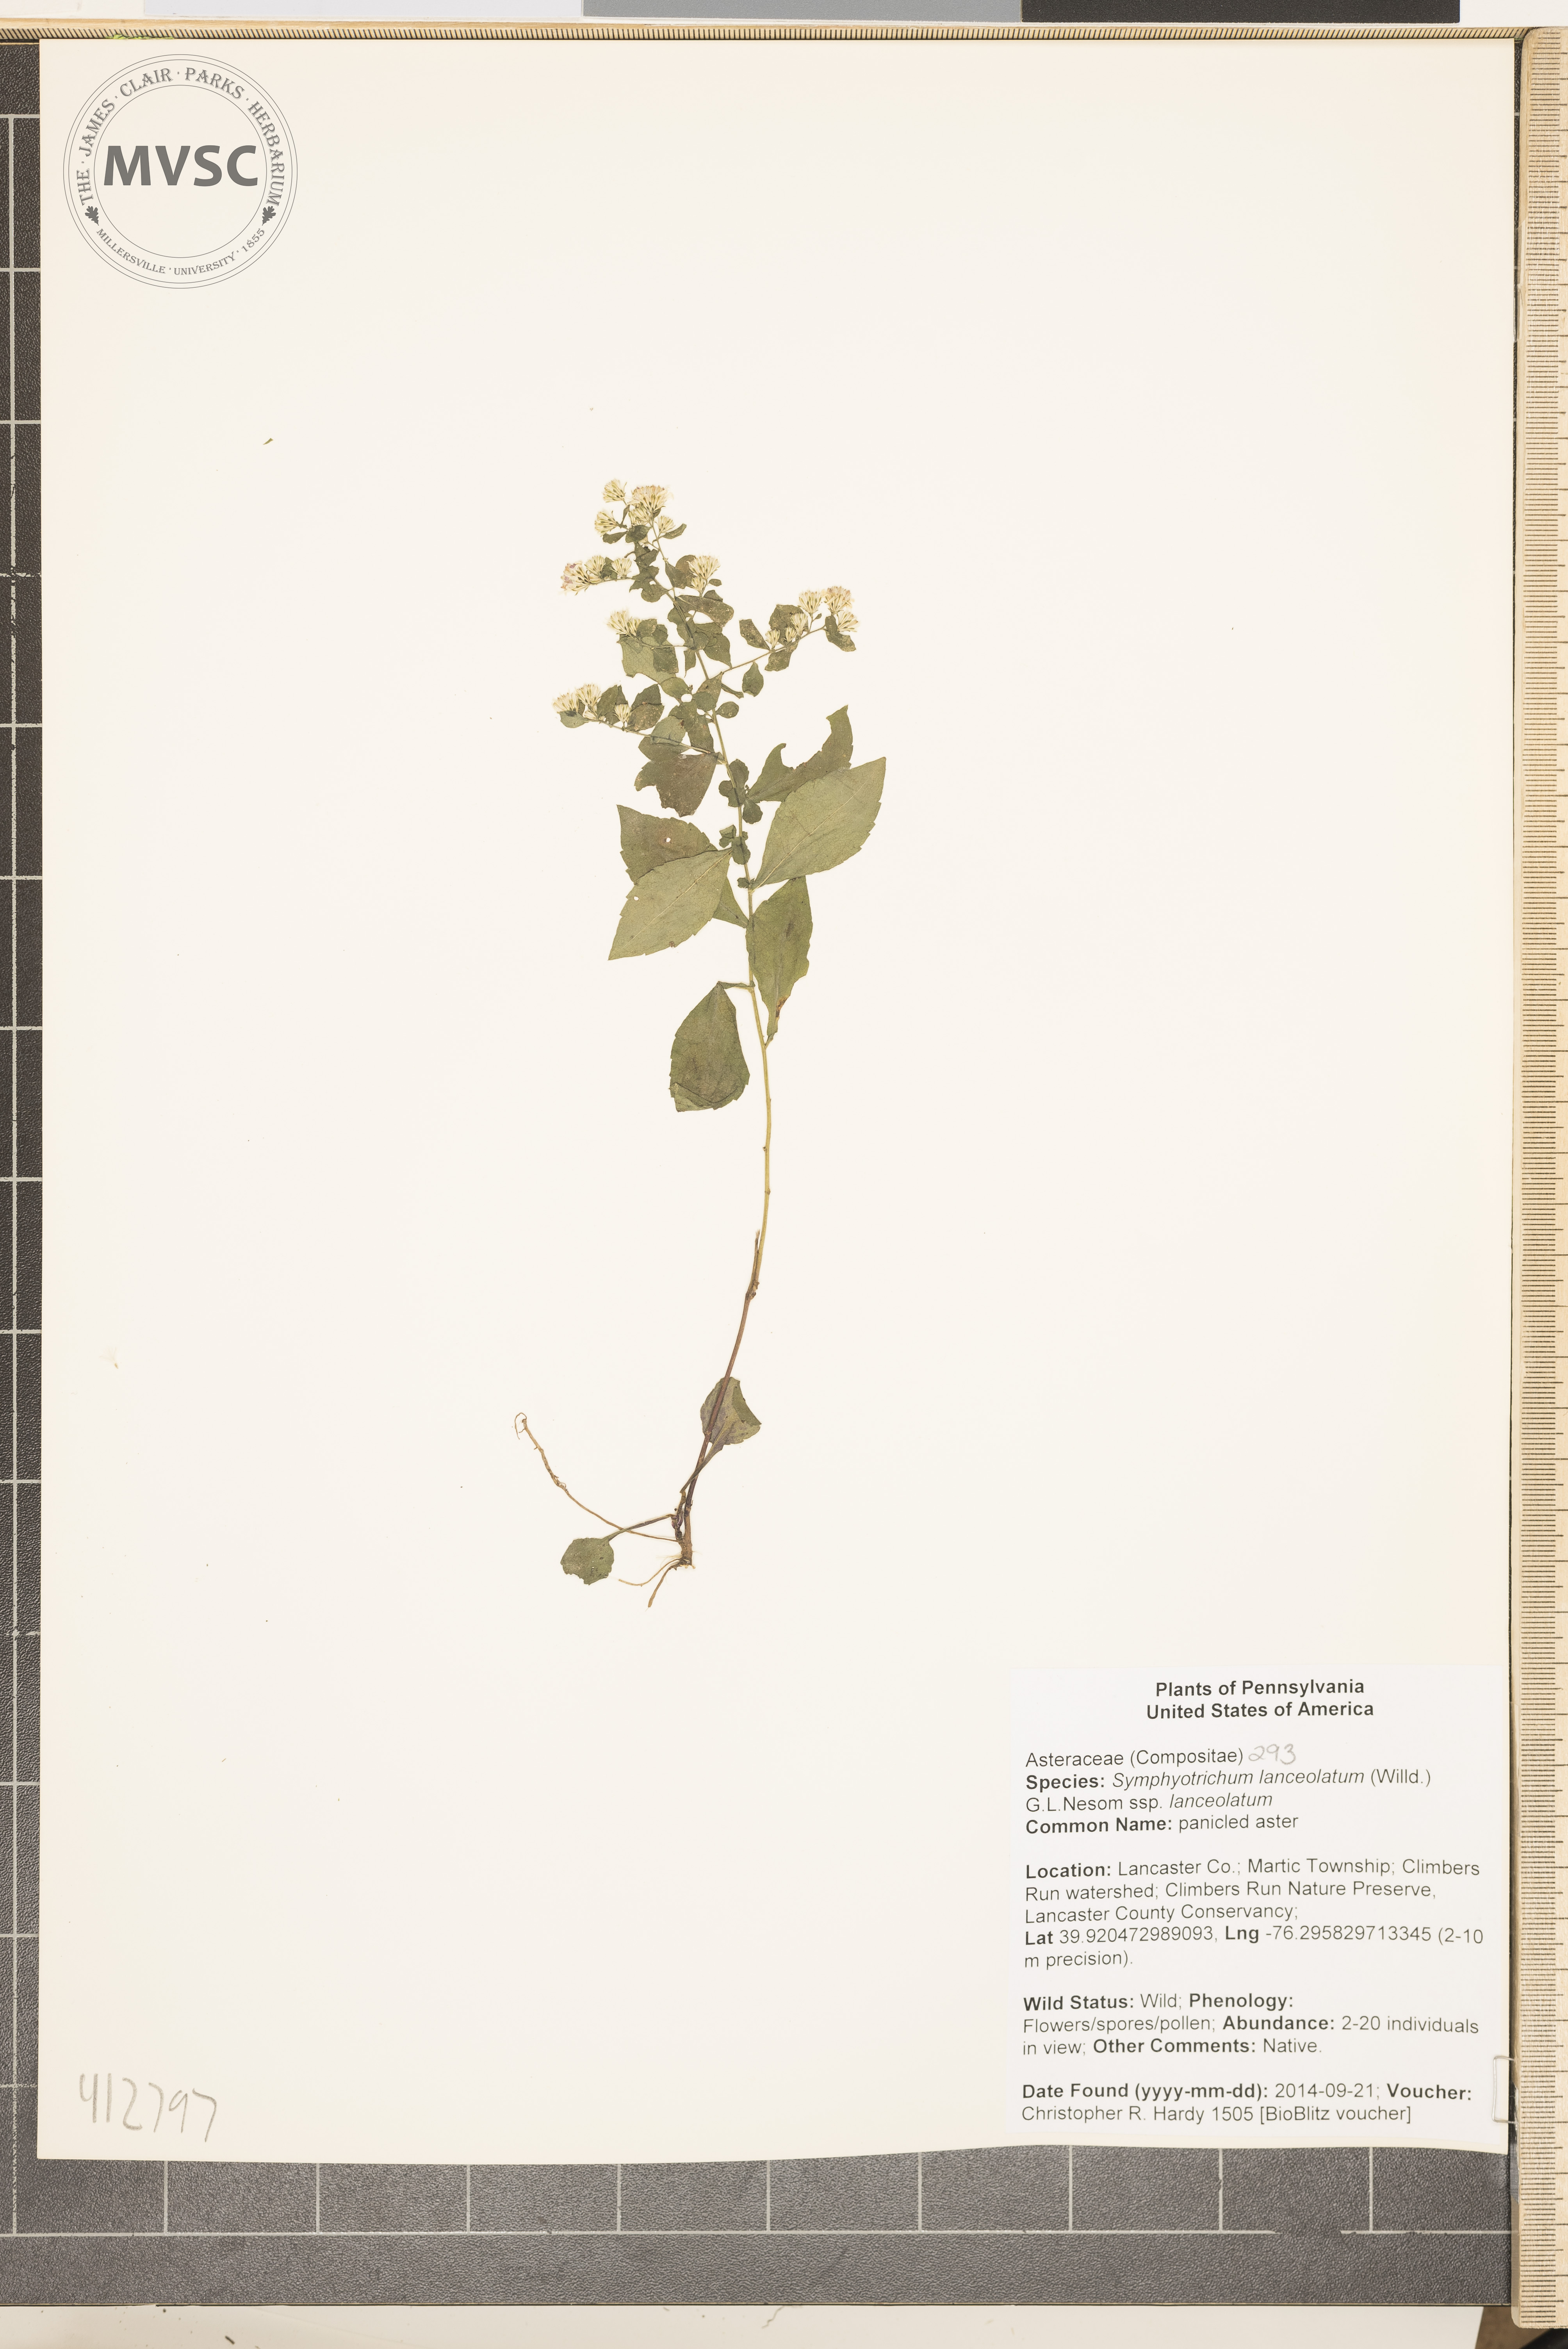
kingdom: Plantae
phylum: Tracheophyta
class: Magnoliopsida
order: Asterales
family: Asteraceae
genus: Symphyotrichum
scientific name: Symphyotrichum lanceolatum
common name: panicled aster
